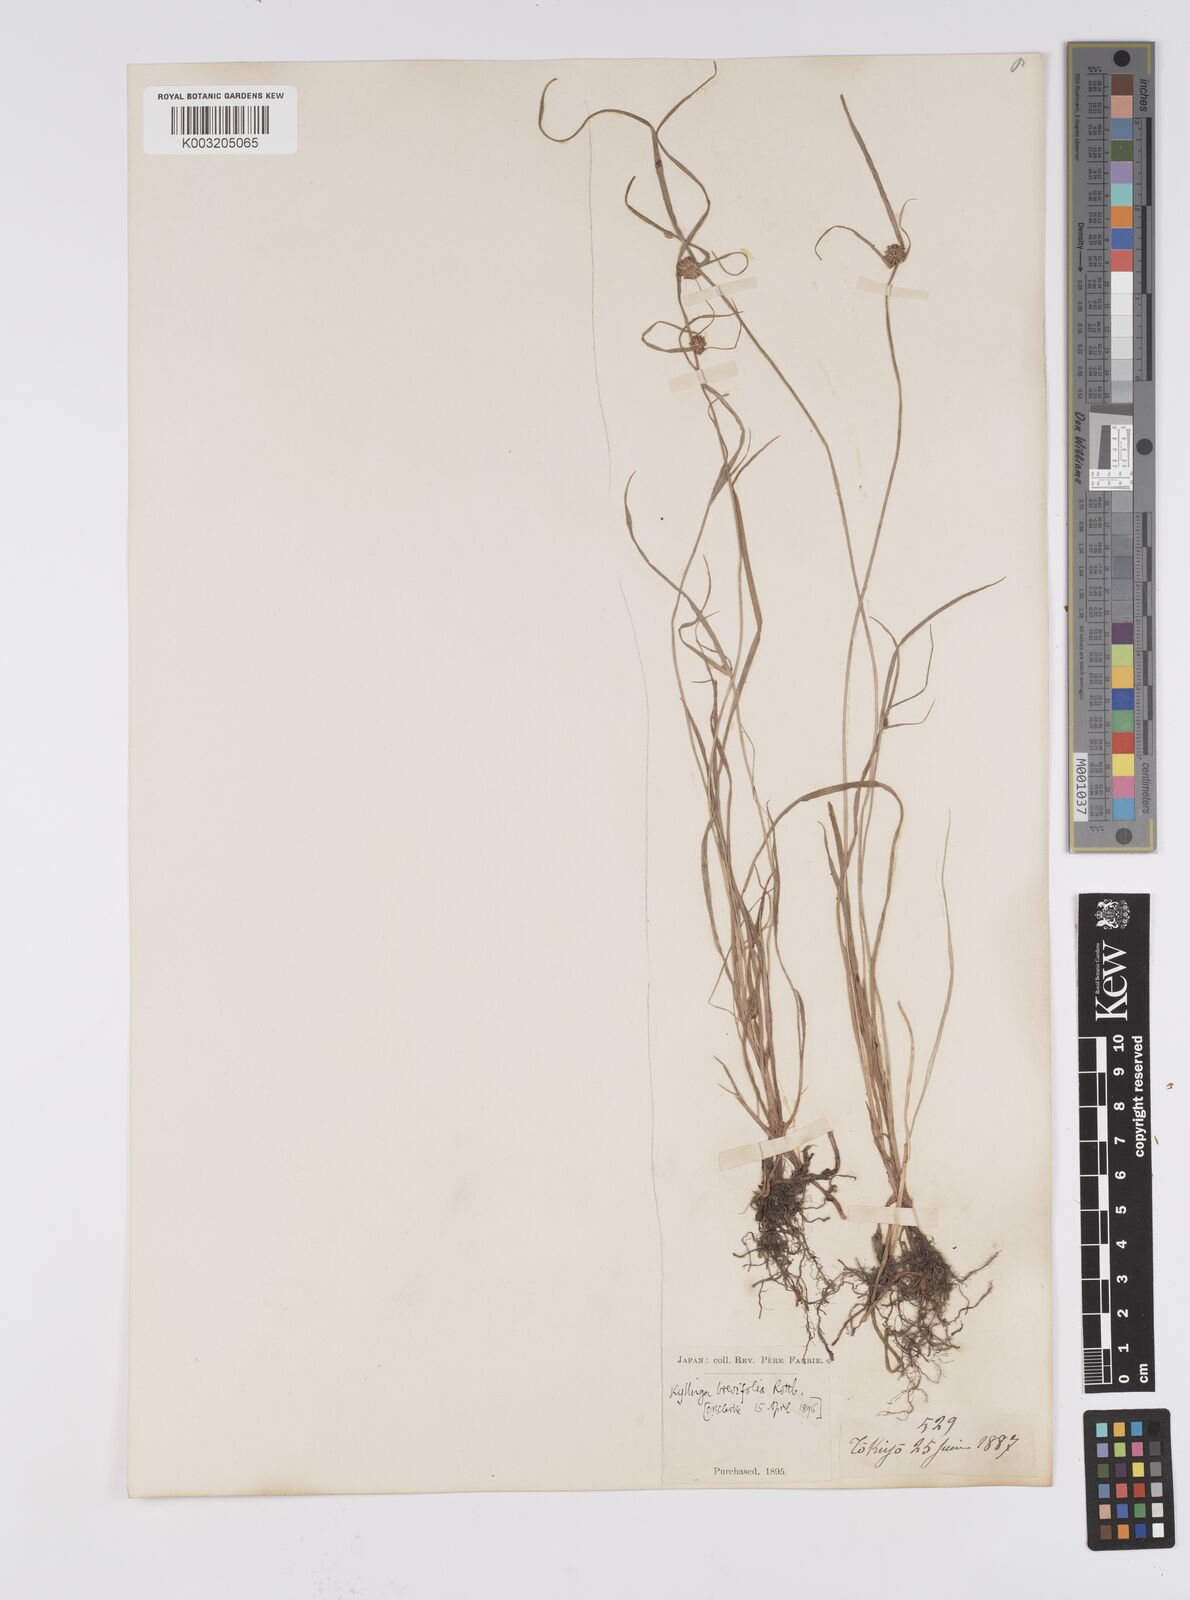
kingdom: Plantae
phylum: Tracheophyta
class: Liliopsida
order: Poales
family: Cyperaceae
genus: Cyperus
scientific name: Cyperus brevifolius
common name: Globe kyllinga
